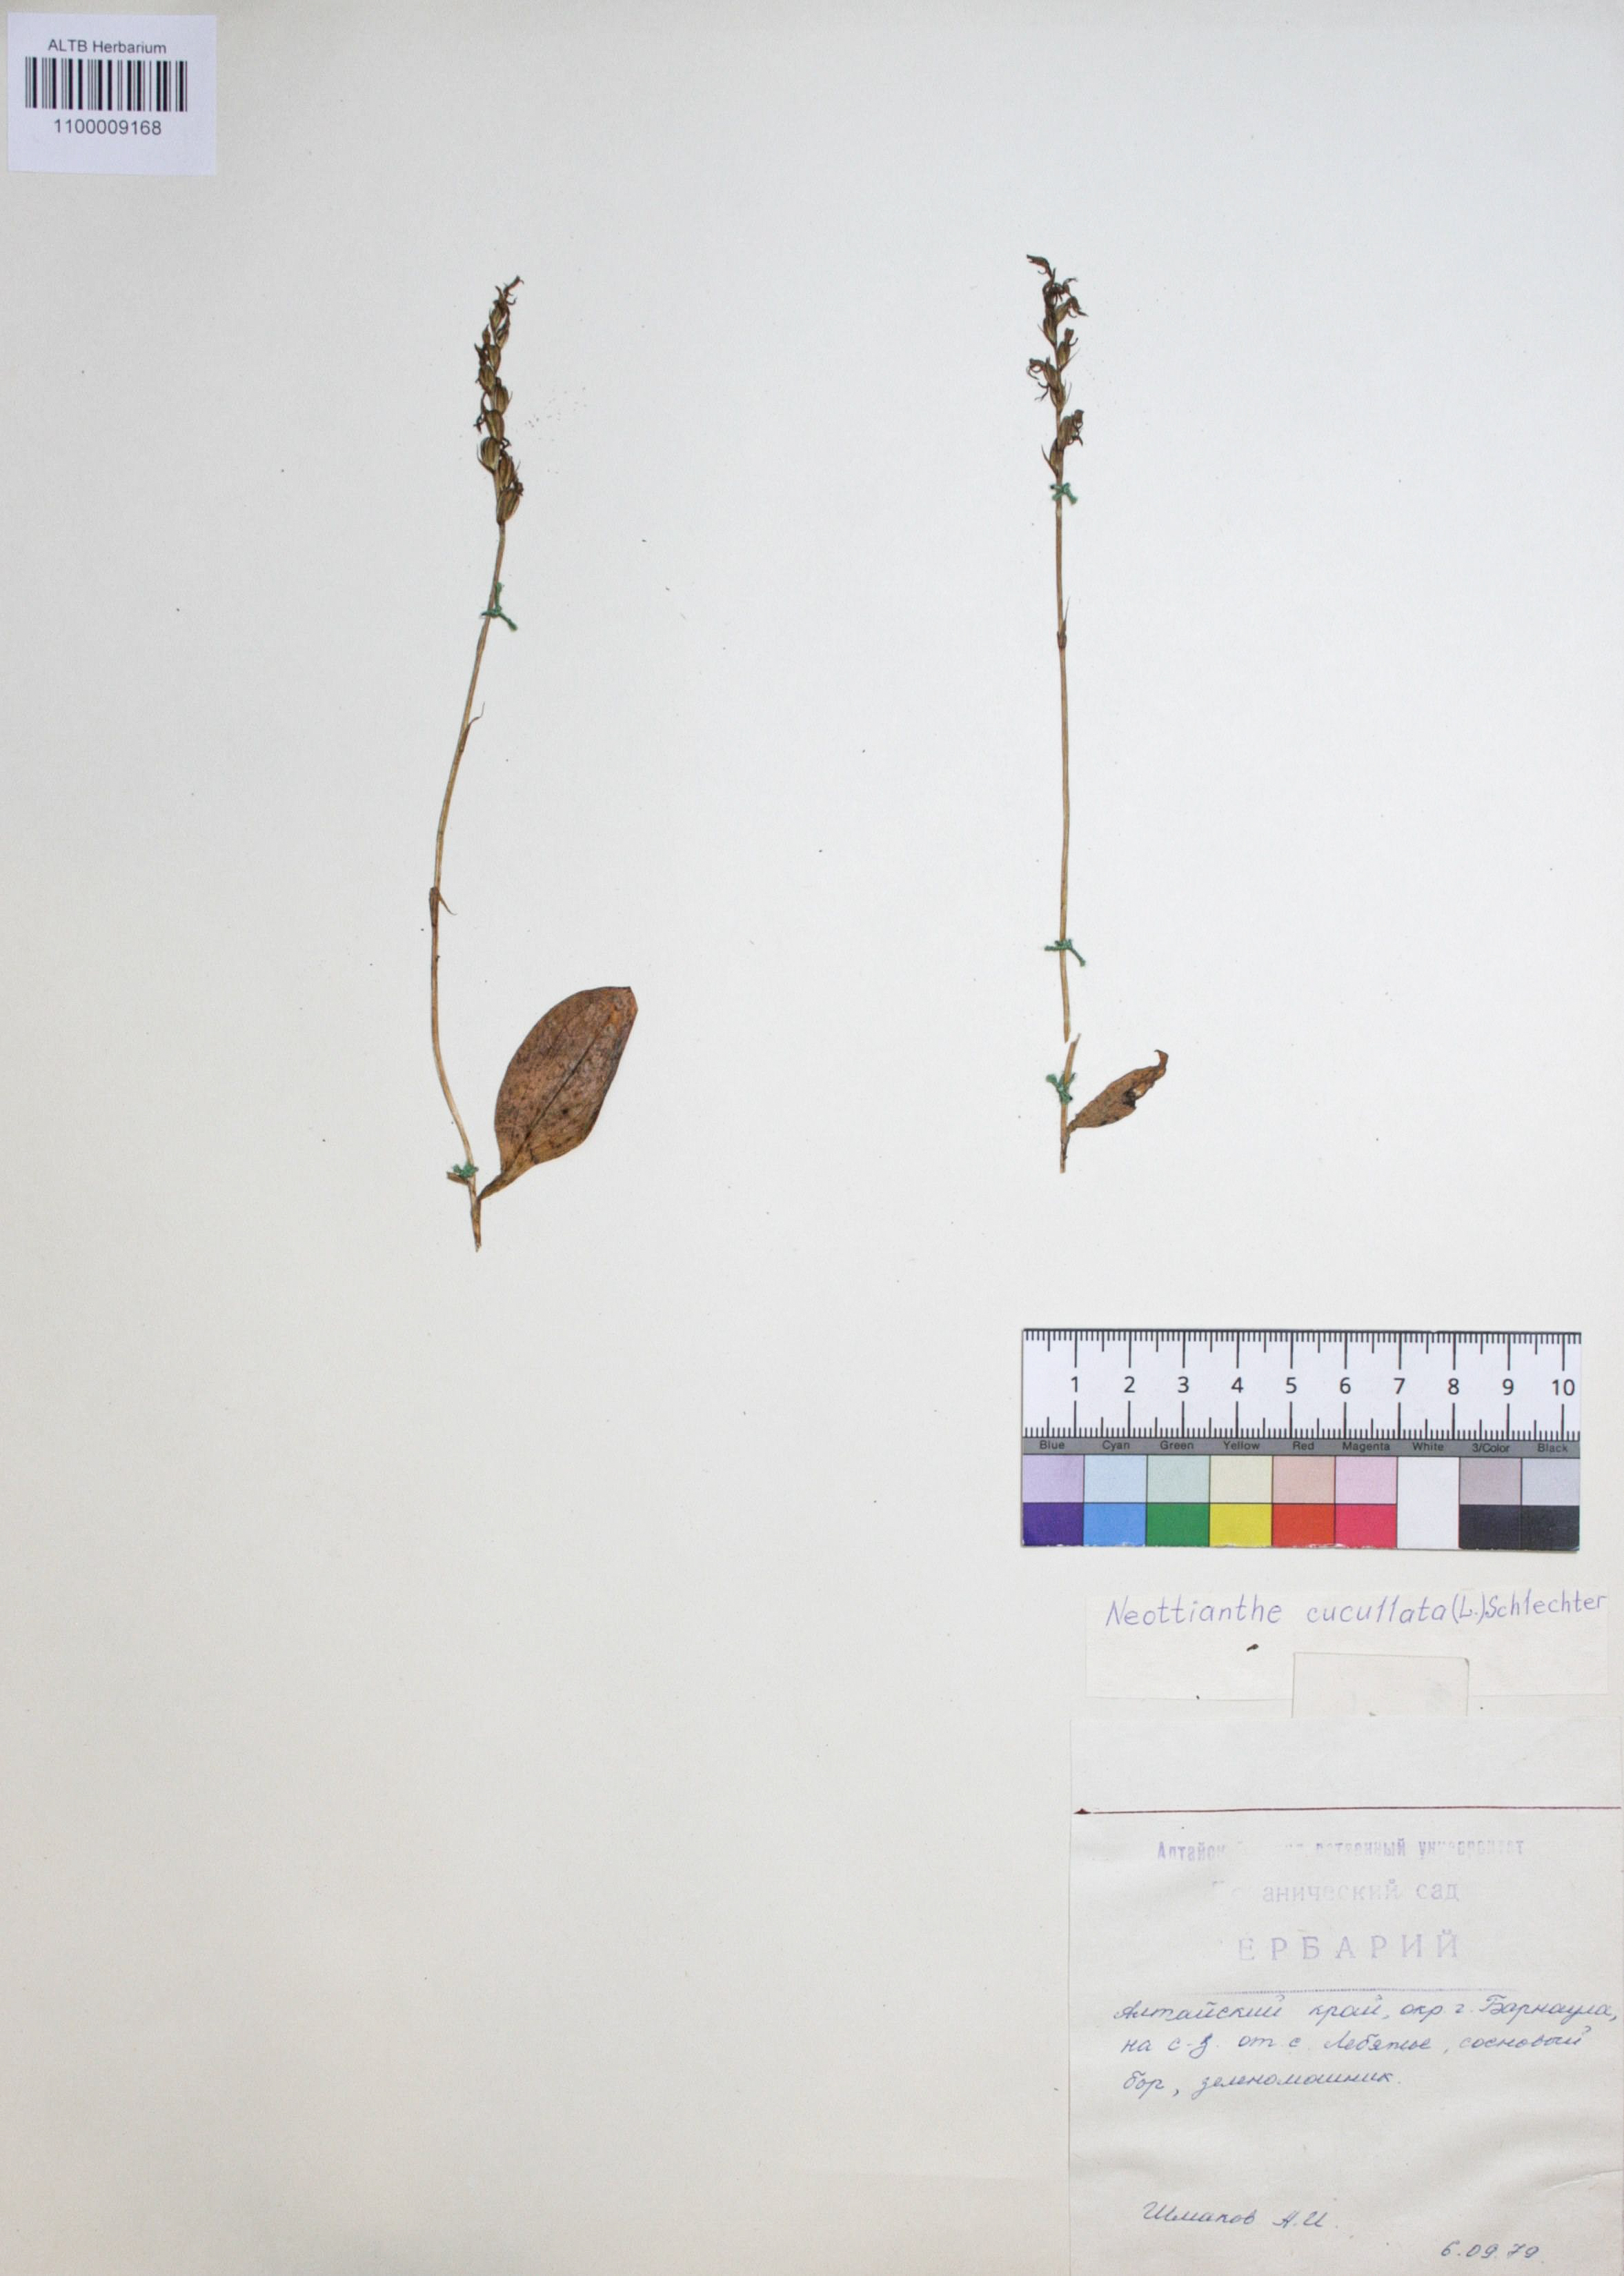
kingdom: Plantae
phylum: Tracheophyta
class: Liliopsida
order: Asparagales
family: Orchidaceae
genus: Hemipilia
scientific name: Hemipilia cucullata
